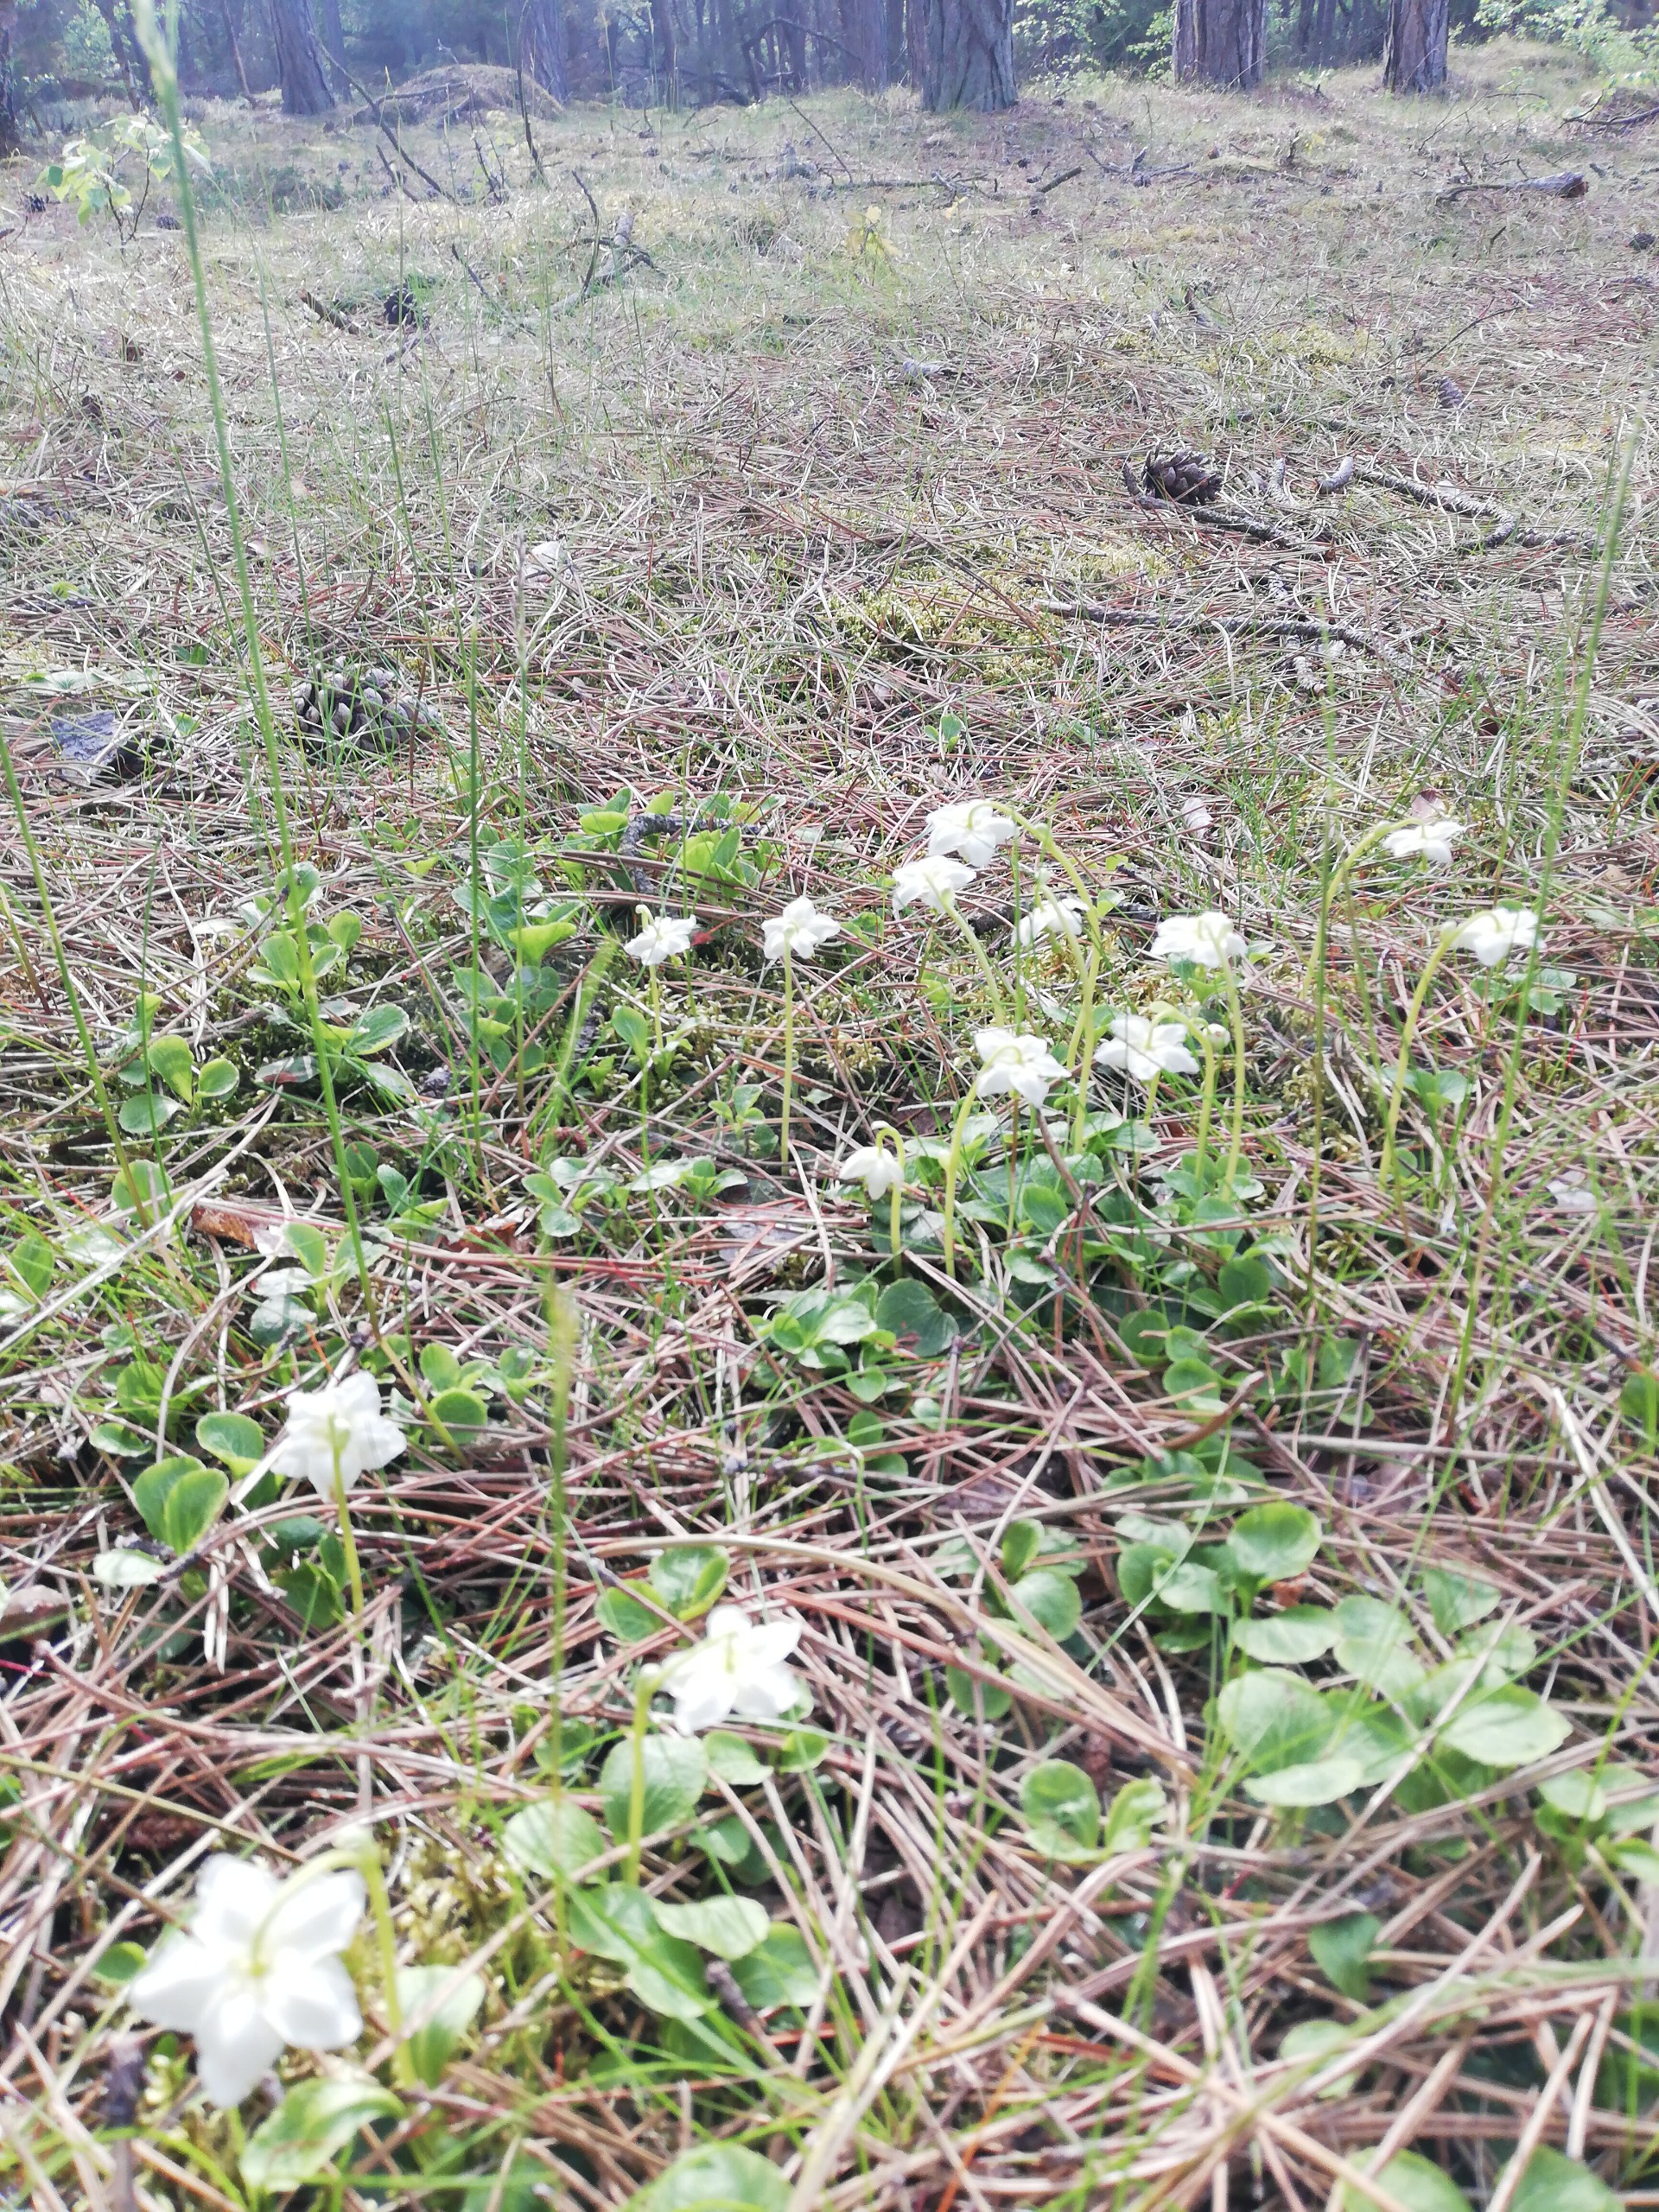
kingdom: Plantae
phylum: Tracheophyta
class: Magnoliopsida
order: Ericales
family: Ericaceae
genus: Moneses
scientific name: Moneses uniflora
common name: Enblomstret vintergrøn
